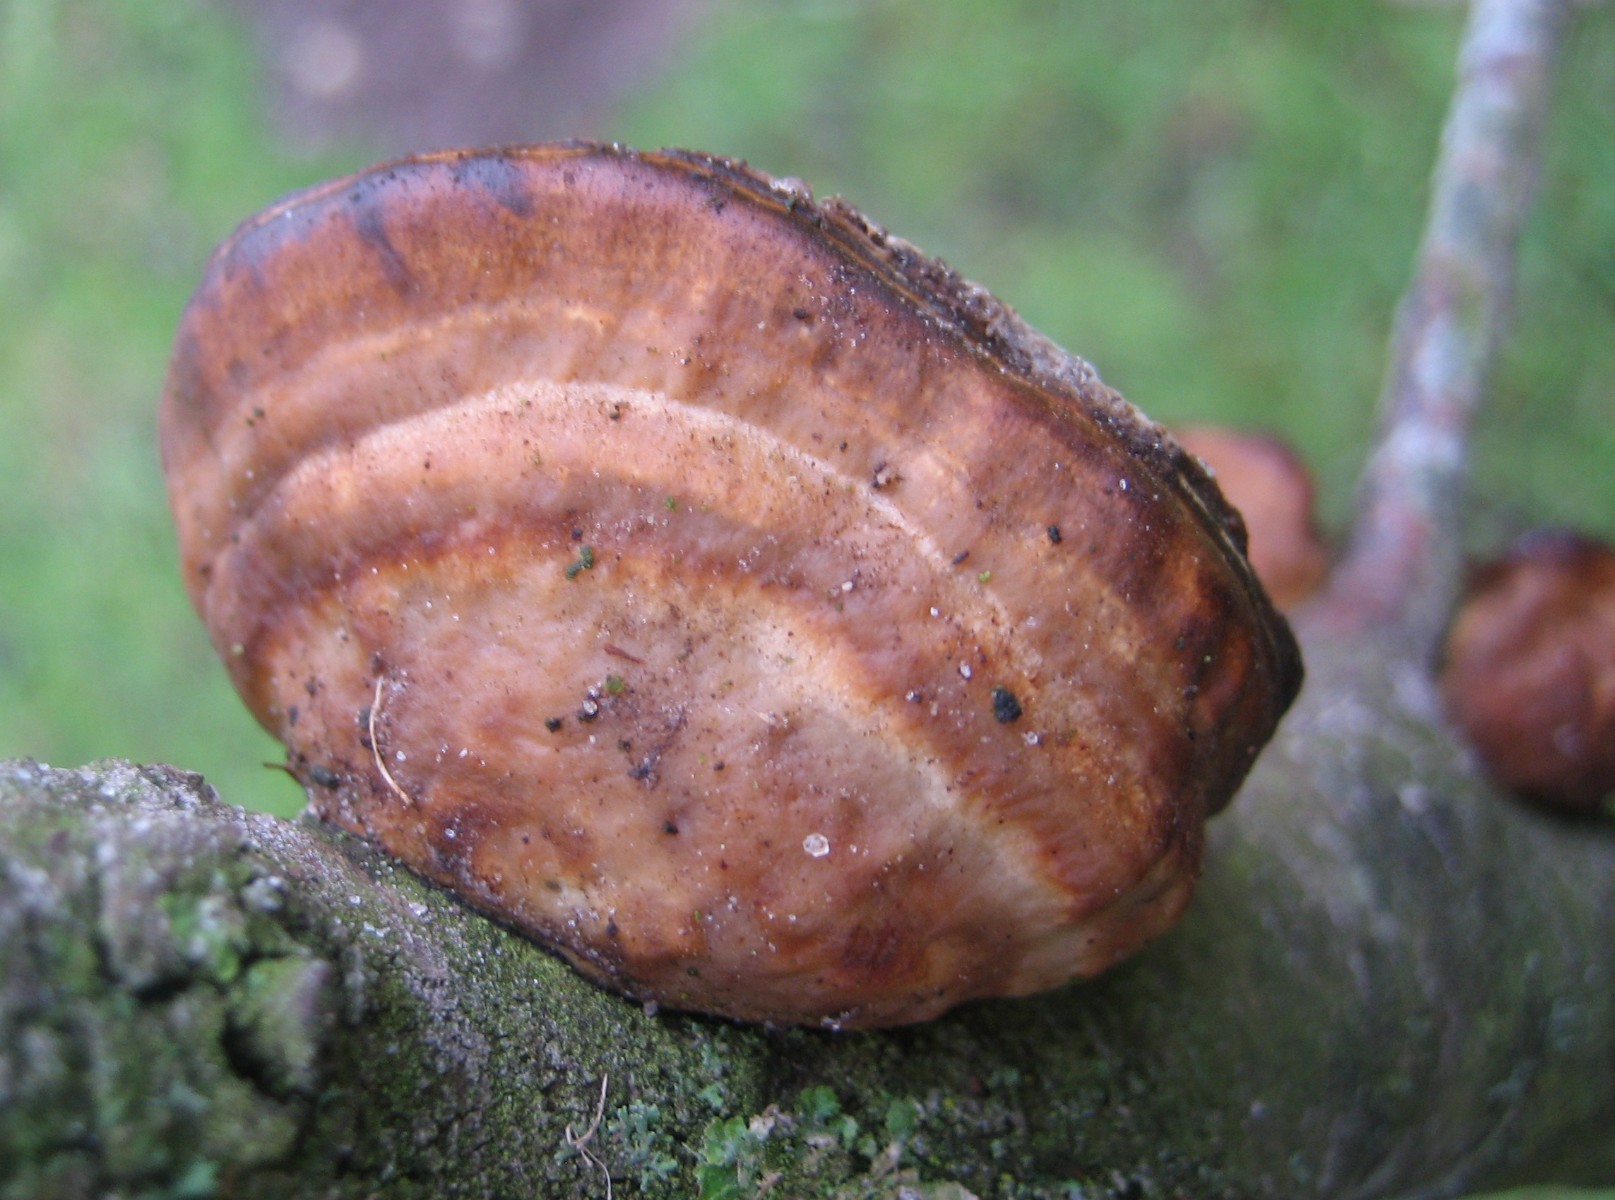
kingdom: Fungi
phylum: Basidiomycota
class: Agaricomycetes
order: Polyporales
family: Polyporaceae
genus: Daedaleopsis
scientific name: Daedaleopsis confragosa
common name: rødmende læderporesvamp
